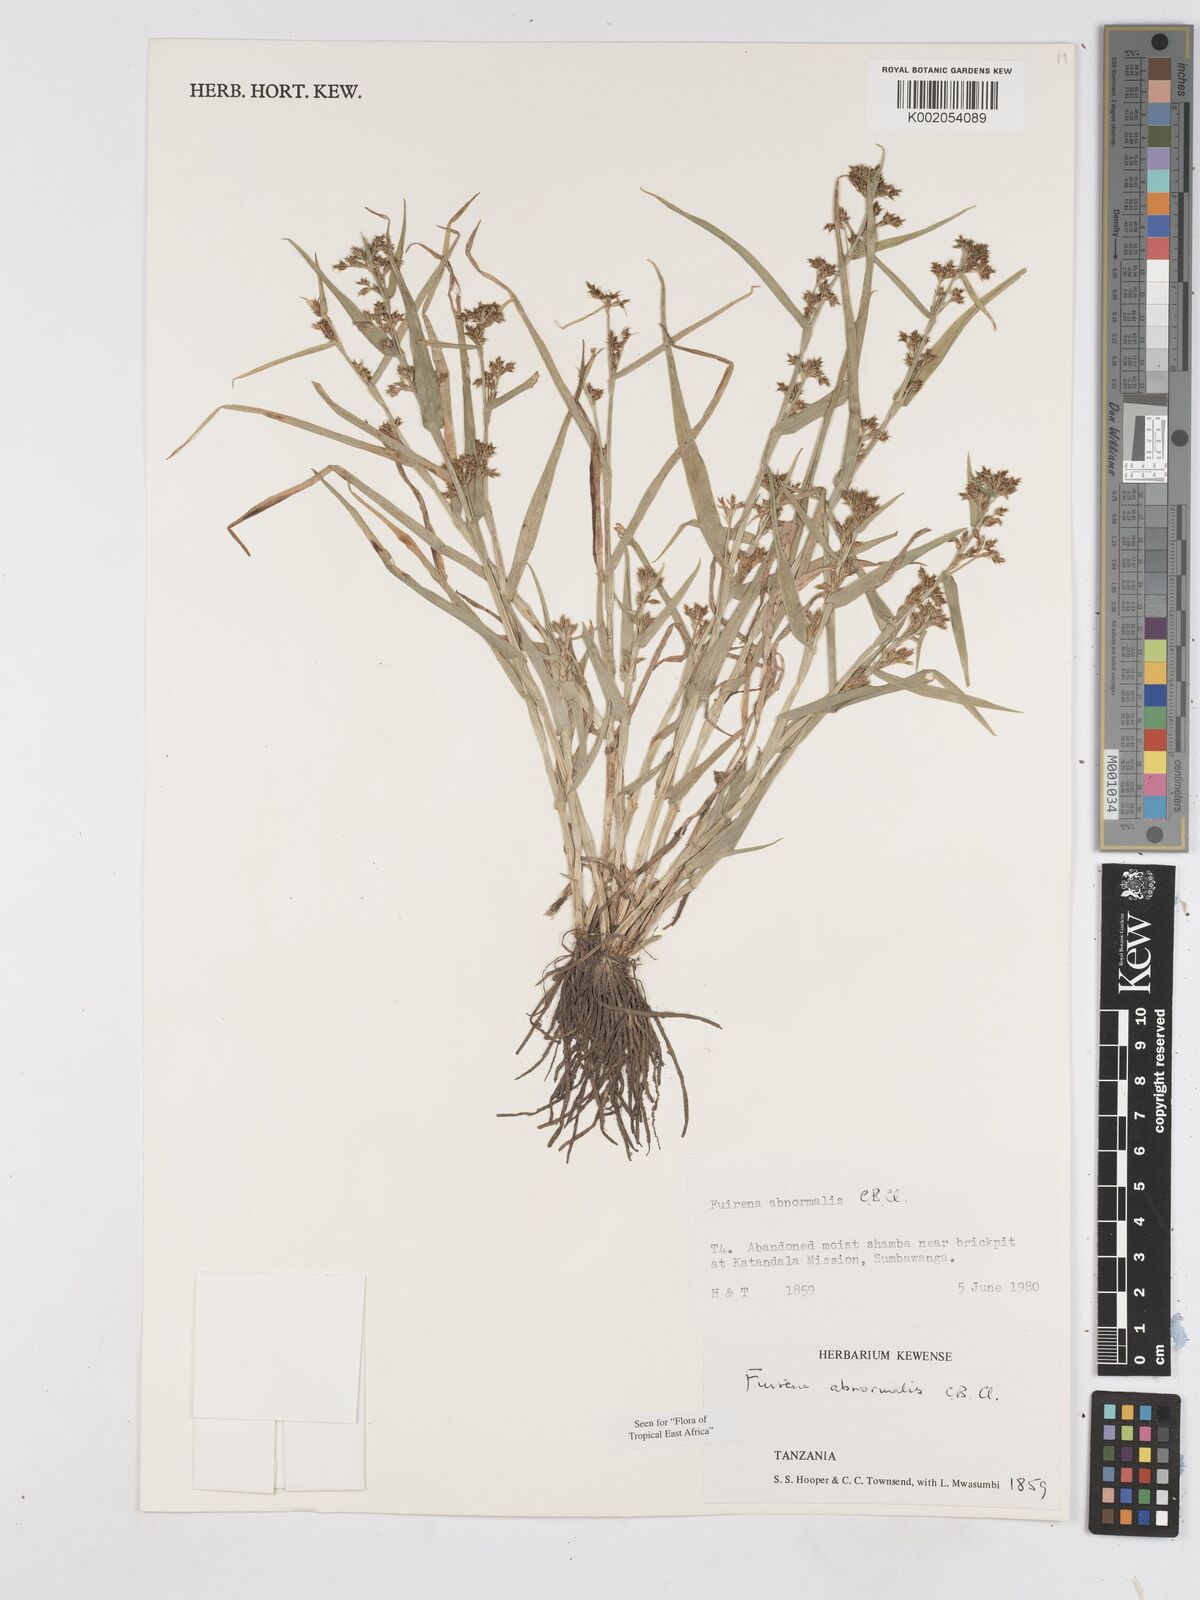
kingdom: Plantae
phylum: Tracheophyta
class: Liliopsida
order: Poales
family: Cyperaceae
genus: Fuirena
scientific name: Fuirena abnormalis
